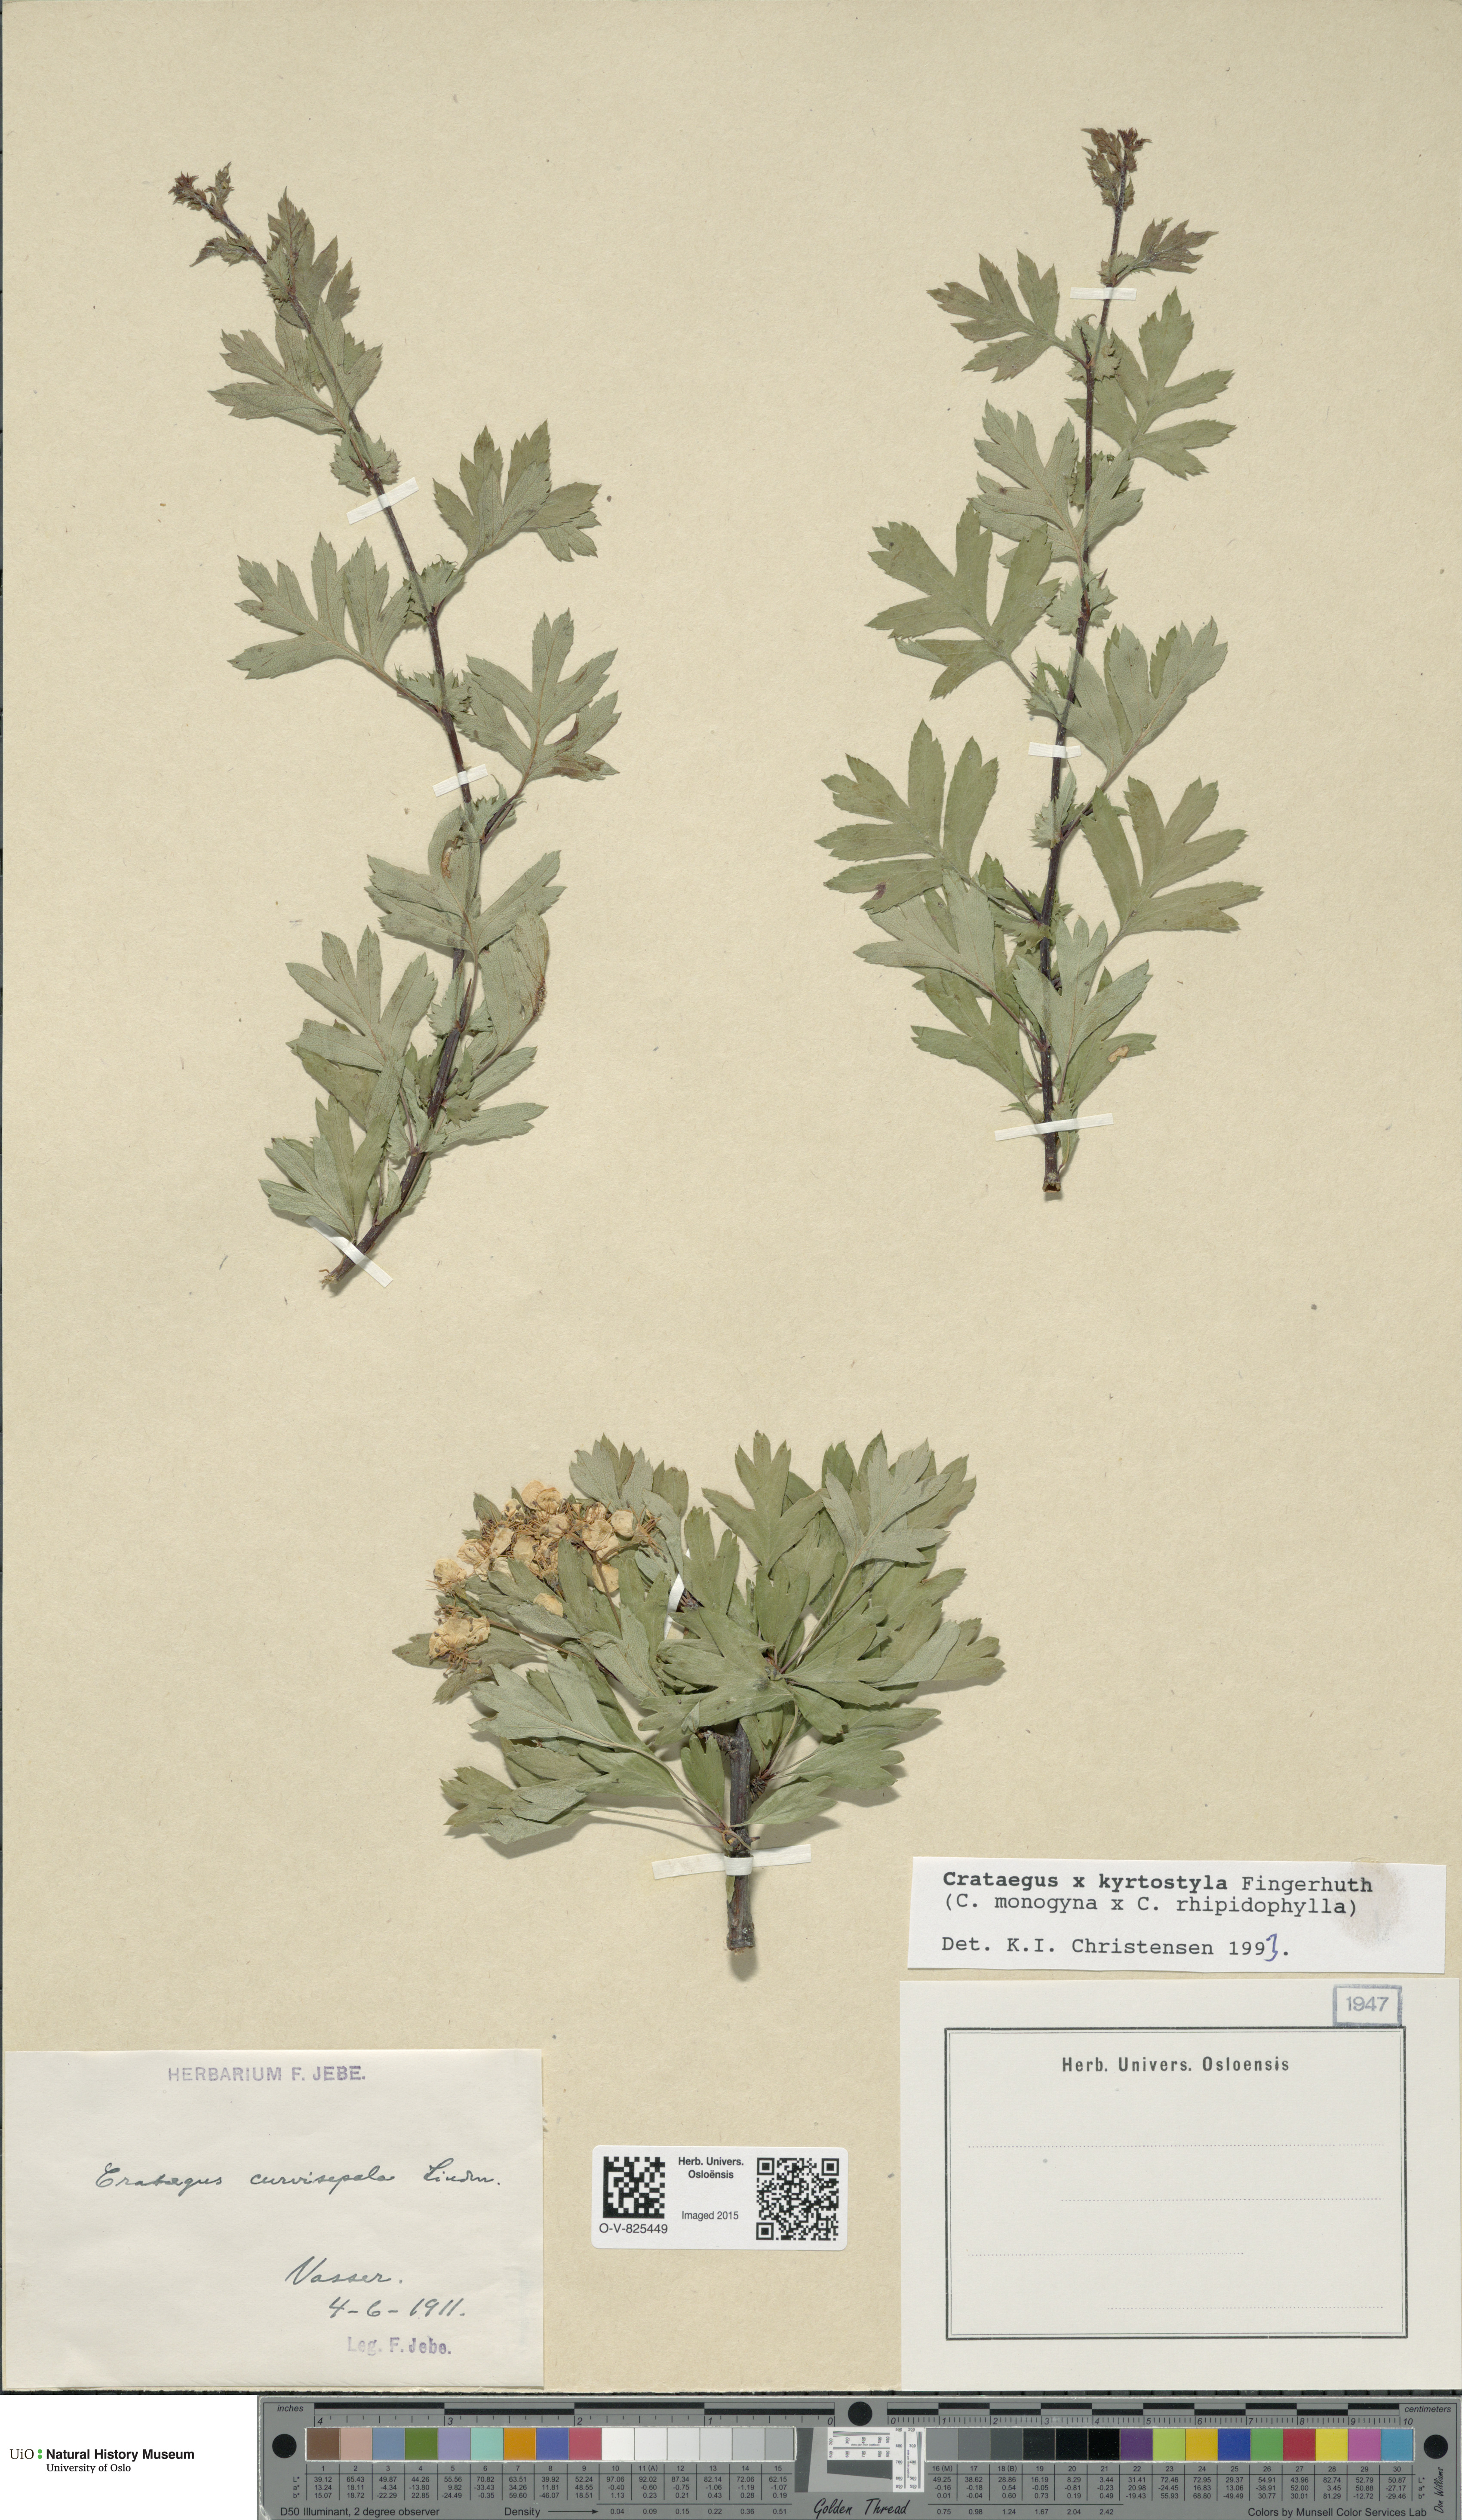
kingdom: Plantae
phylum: Tracheophyta
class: Magnoliopsida
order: Rosales
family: Rosaceae
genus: Crataegus
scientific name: Crataegus kyrtostyla
